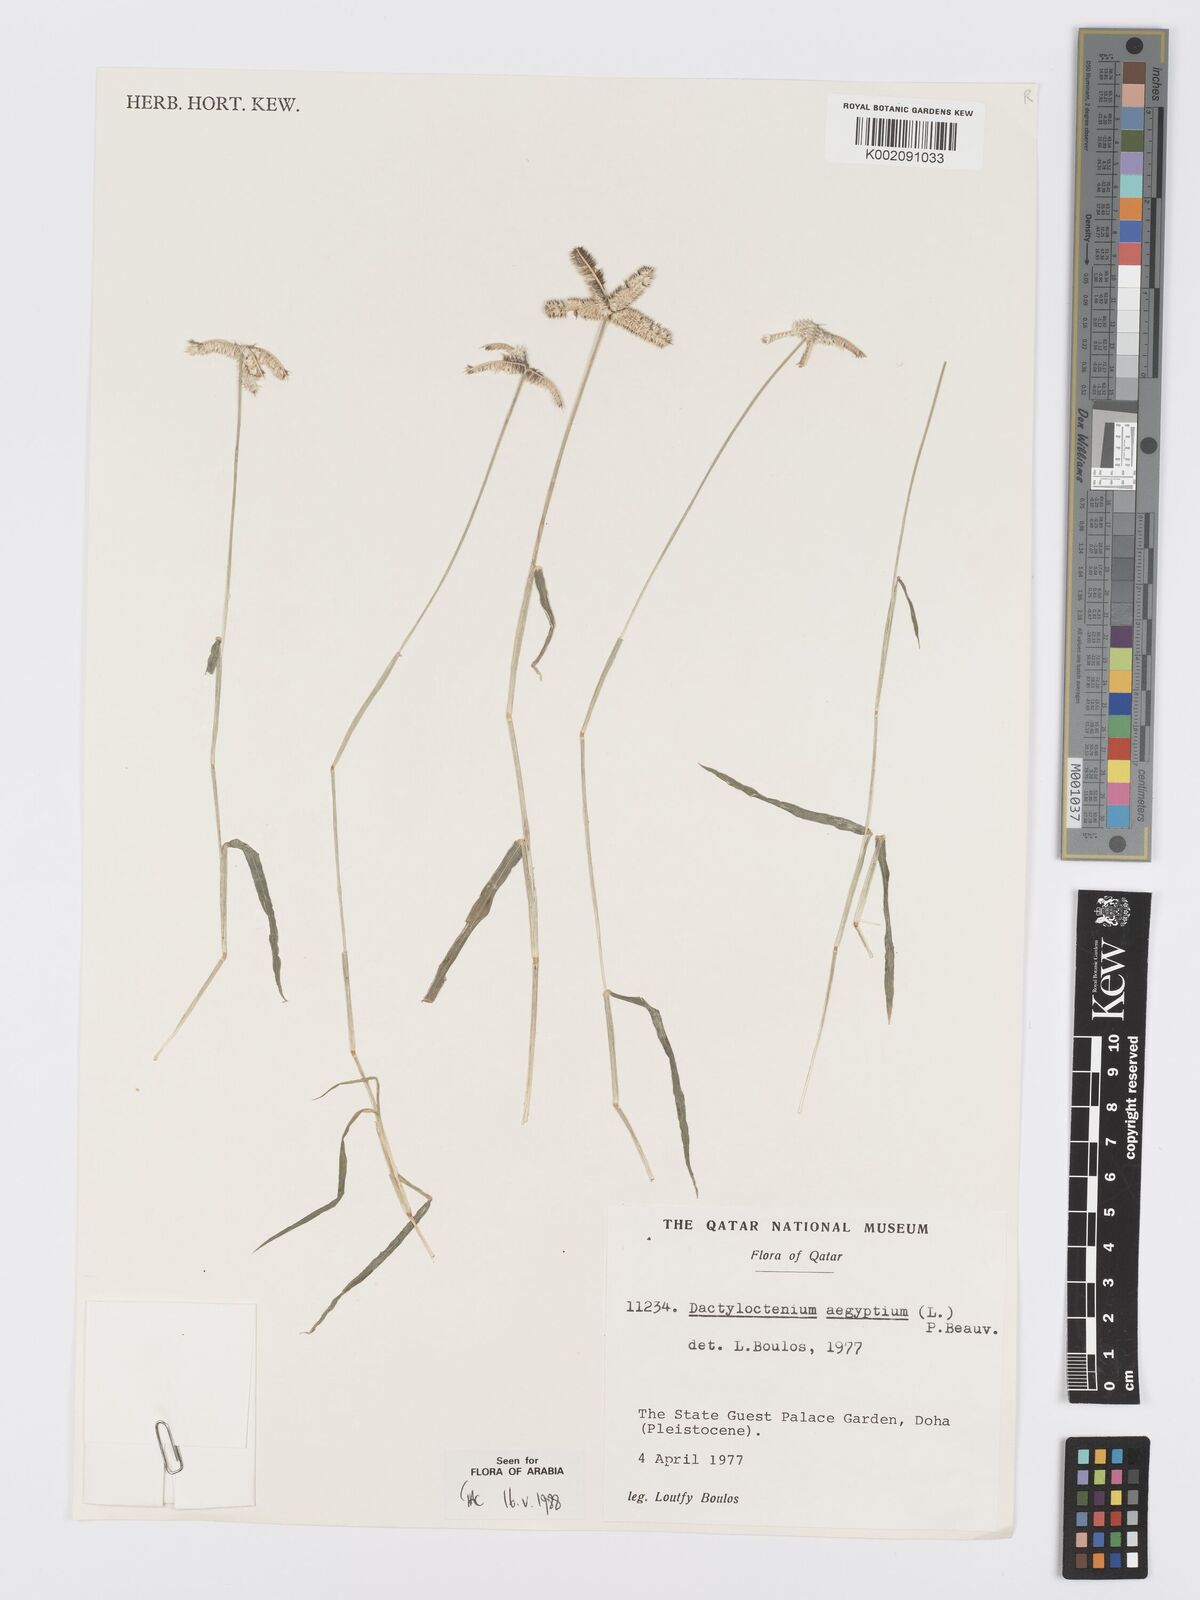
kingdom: Plantae
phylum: Tracheophyta
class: Liliopsida
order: Poales
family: Poaceae
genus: Dactyloctenium
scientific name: Dactyloctenium aegyptium
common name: Egyptian grass
